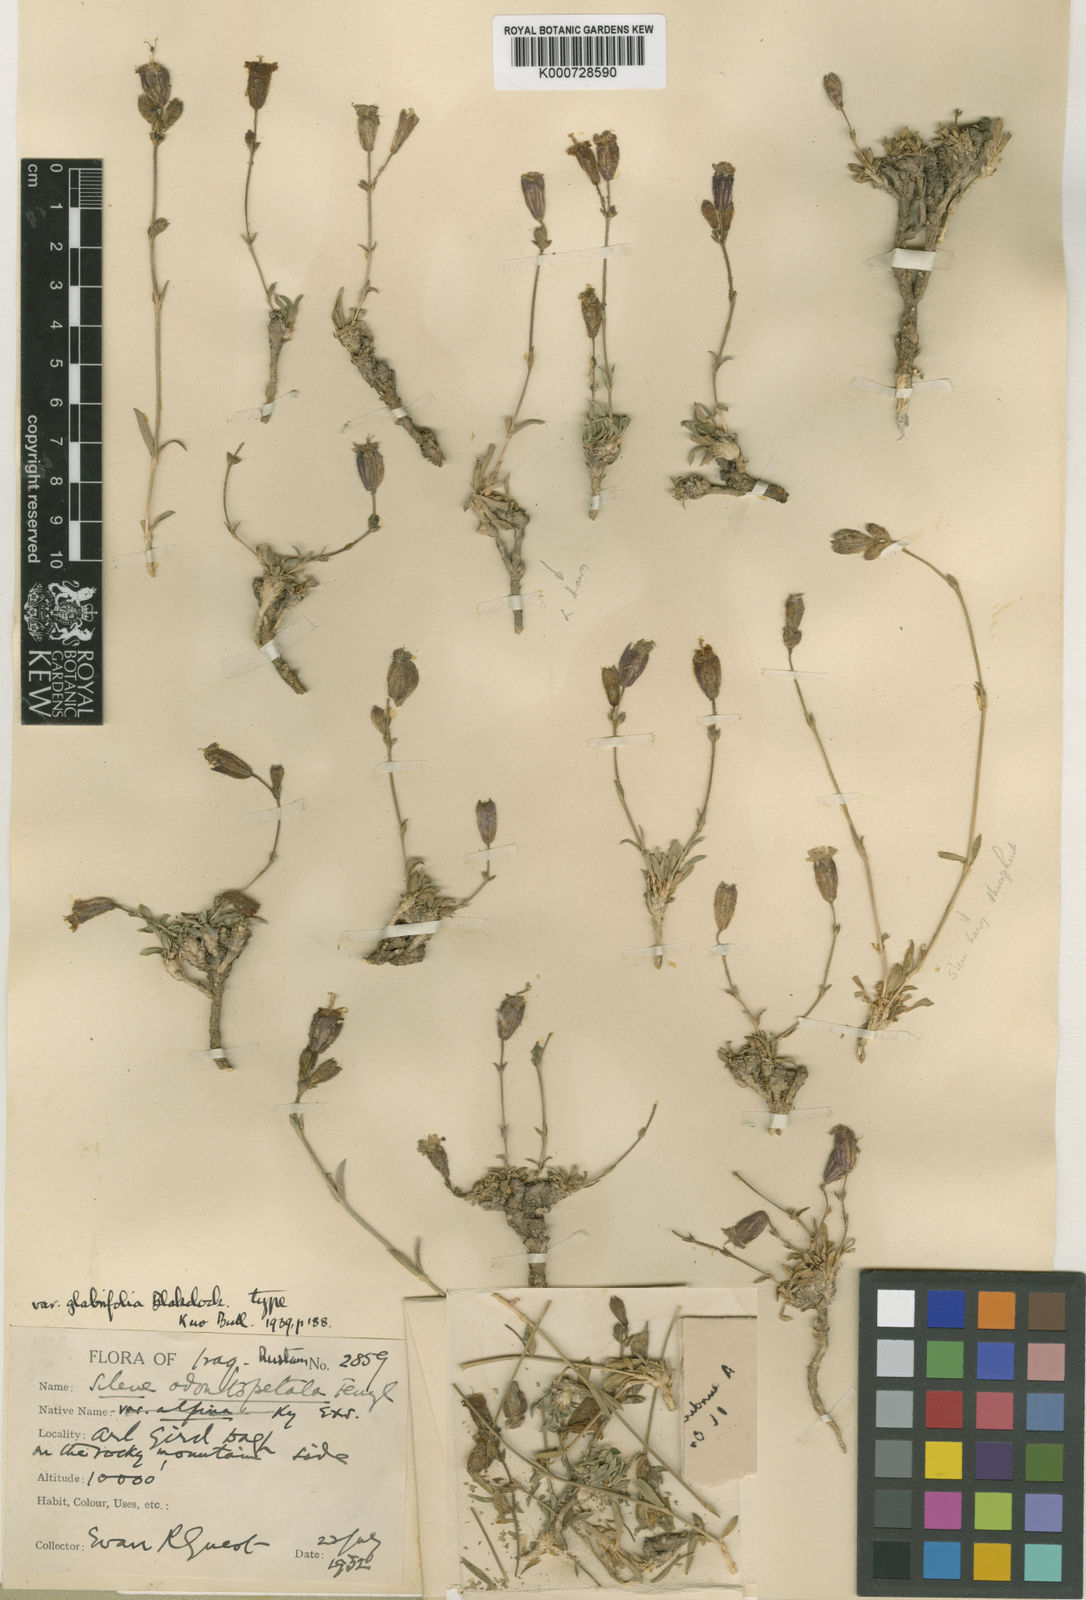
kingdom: Plantae
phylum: Tracheophyta
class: Magnoliopsida
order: Caryophyllales
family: Caryophyllaceae
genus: Silene
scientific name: Silene odontopetala
